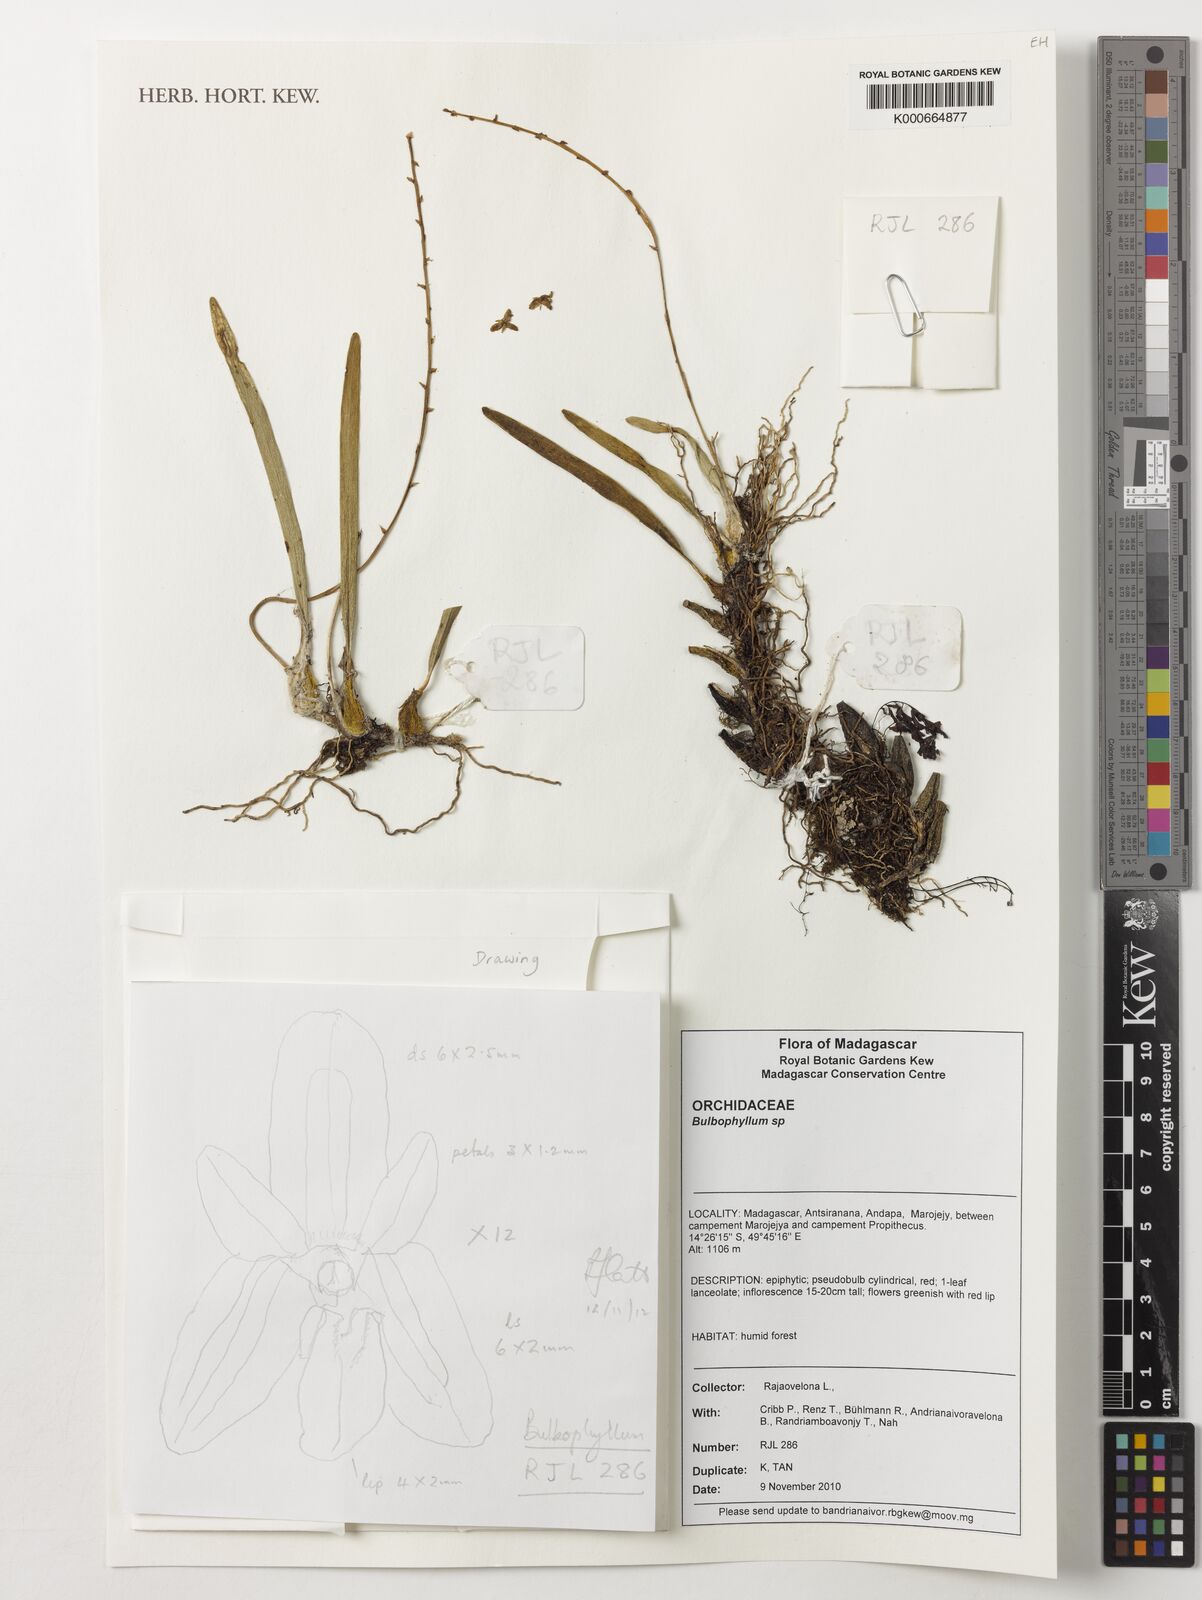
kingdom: Plantae
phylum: Tracheophyta
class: Liliopsida
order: Asparagales
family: Orchidaceae
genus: Bulbophyllum
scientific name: Bulbophyllum
